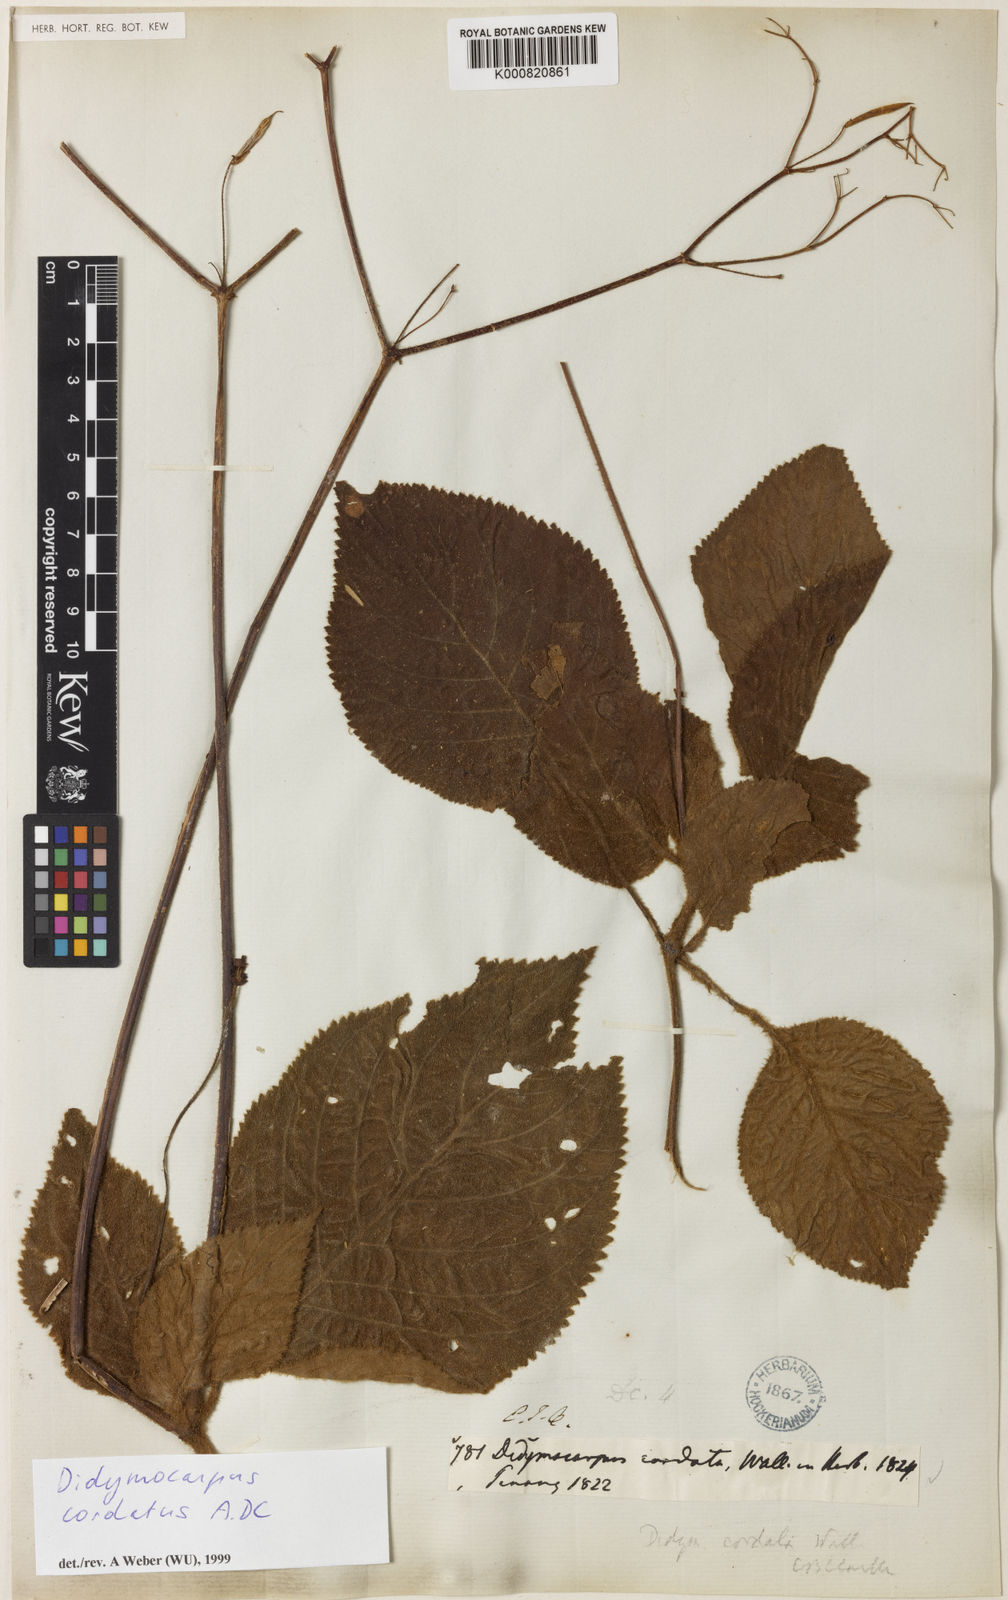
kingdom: Plantae
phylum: Tracheophyta
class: Magnoliopsida
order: Lamiales
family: Gesneriaceae
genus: Henckelia
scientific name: Henckelia
